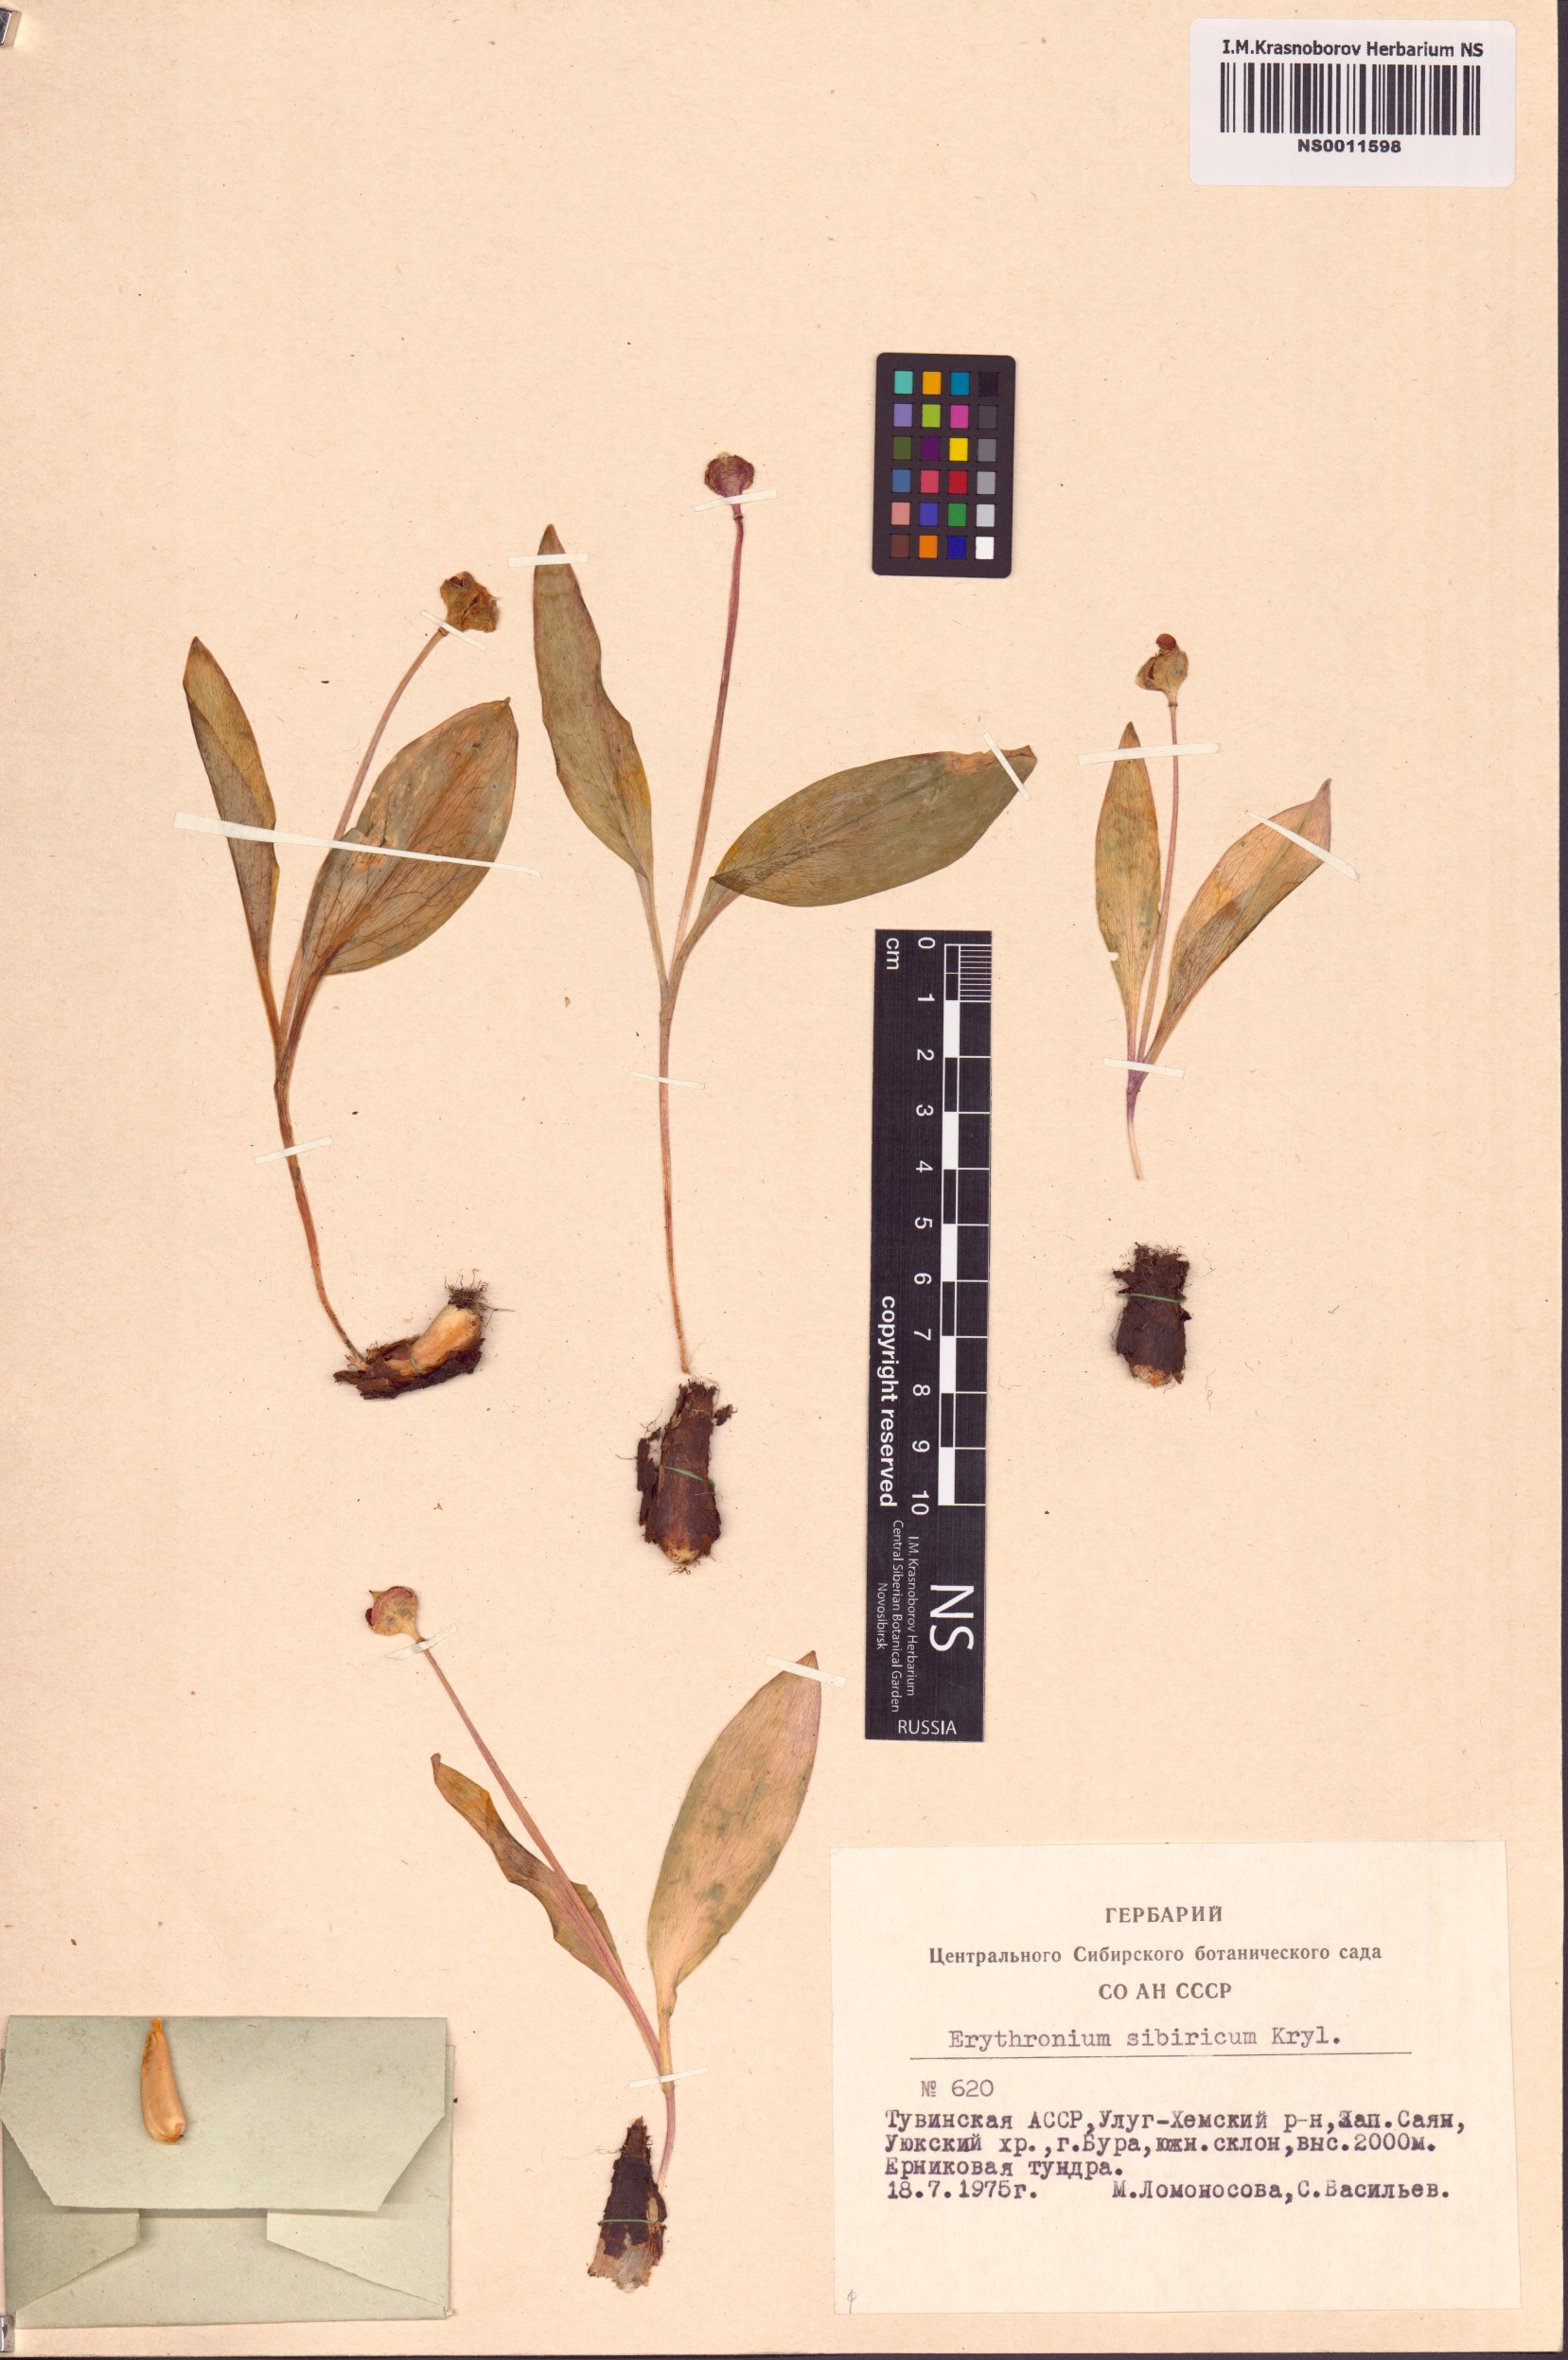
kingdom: Plantae
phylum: Tracheophyta
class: Liliopsida
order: Liliales
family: Liliaceae
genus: Erythronium
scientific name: Erythronium sibiricum
